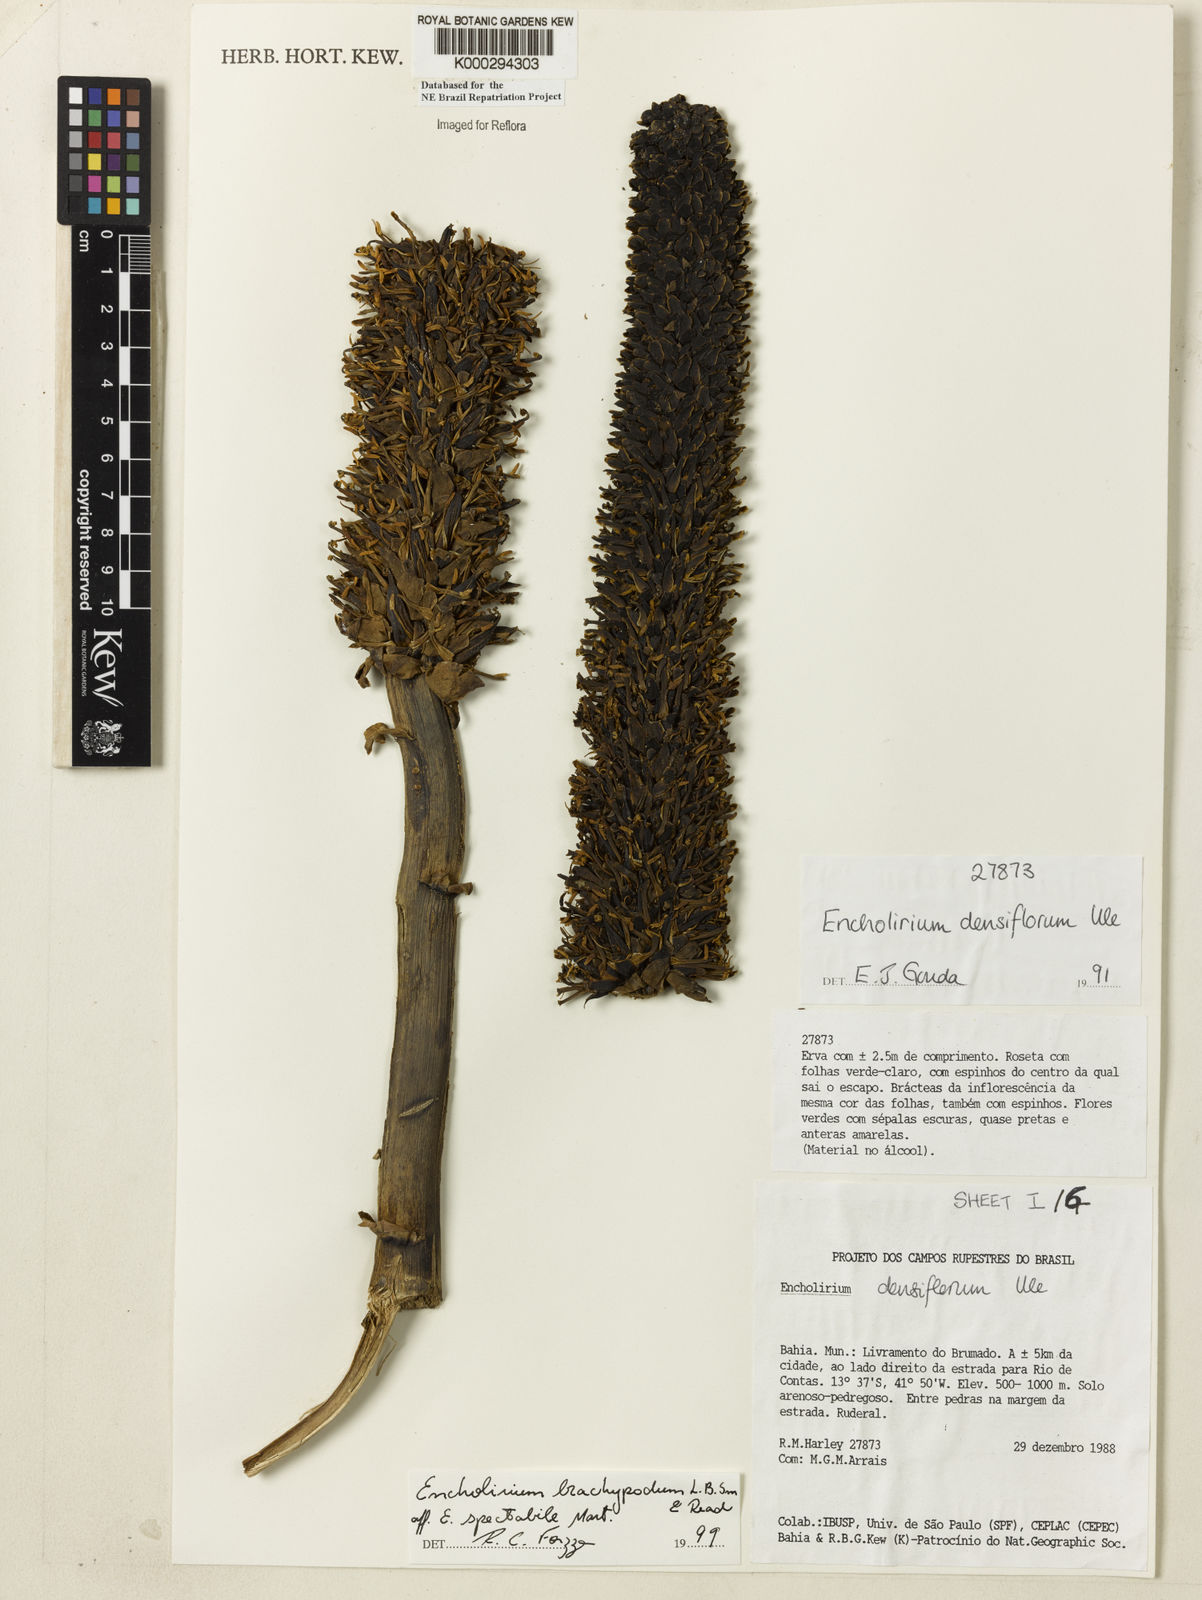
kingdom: Plantae
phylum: Tracheophyta
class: Liliopsida
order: Poales
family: Bromeliaceae
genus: Encholirium
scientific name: Encholirium brachypodum
